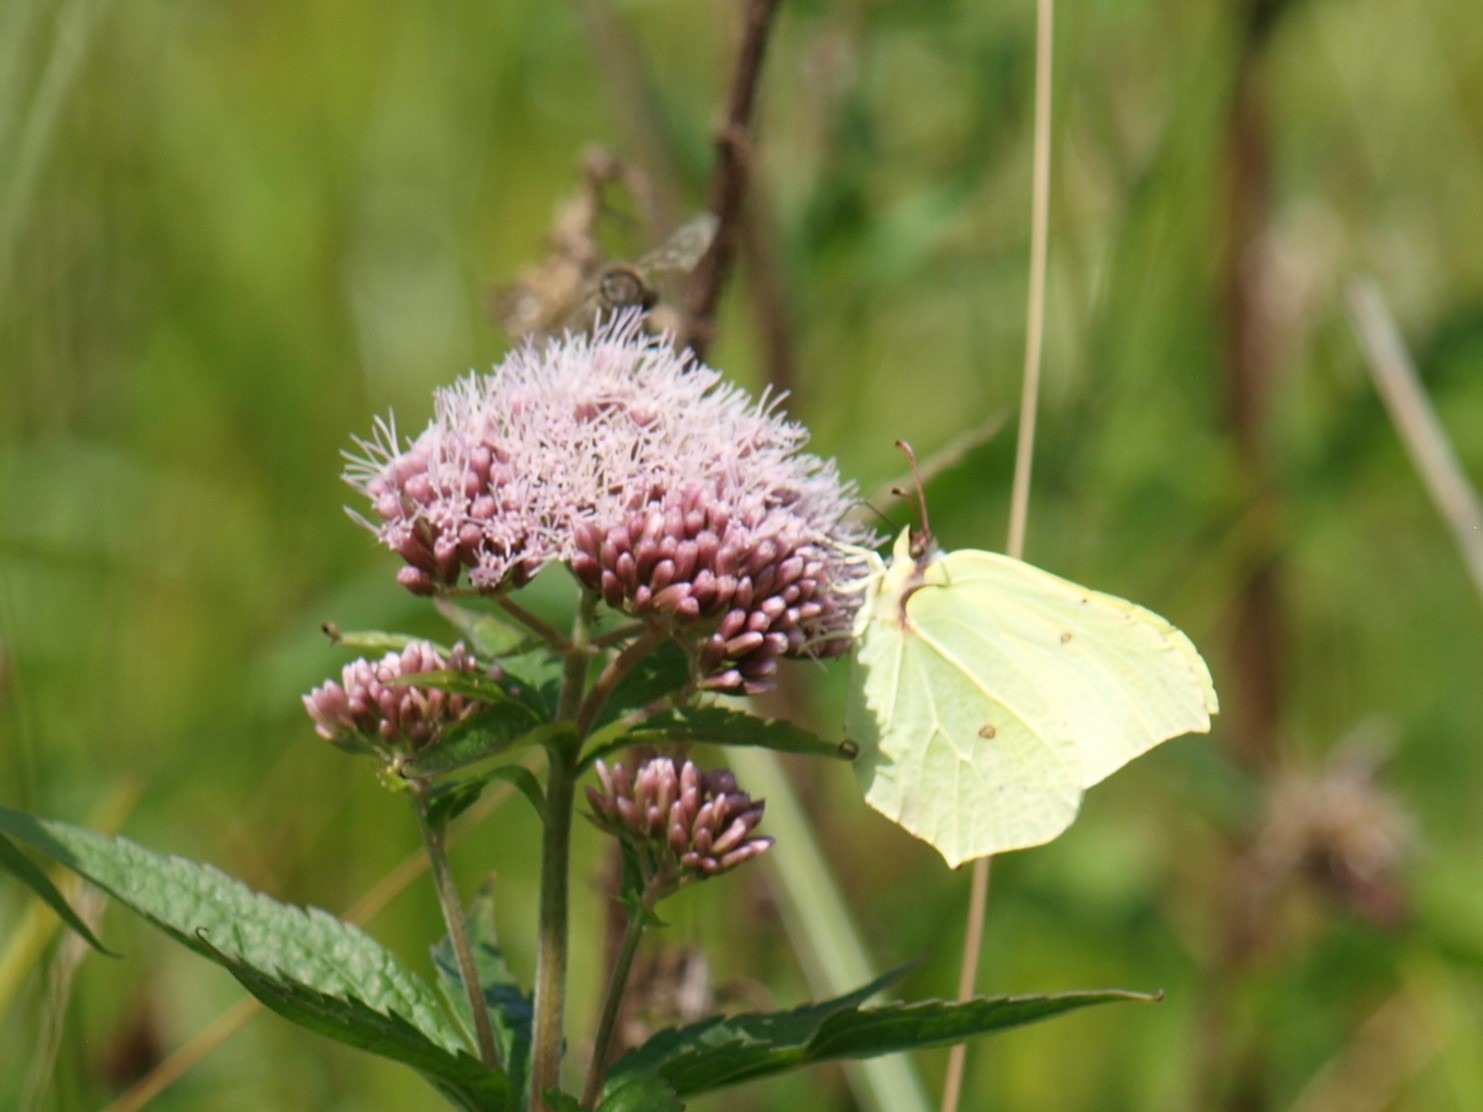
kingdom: Animalia
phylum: Arthropoda
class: Insecta
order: Lepidoptera
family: Pieridae
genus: Gonepteryx
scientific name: Gonepteryx rhamni
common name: Citronsommerfugl
